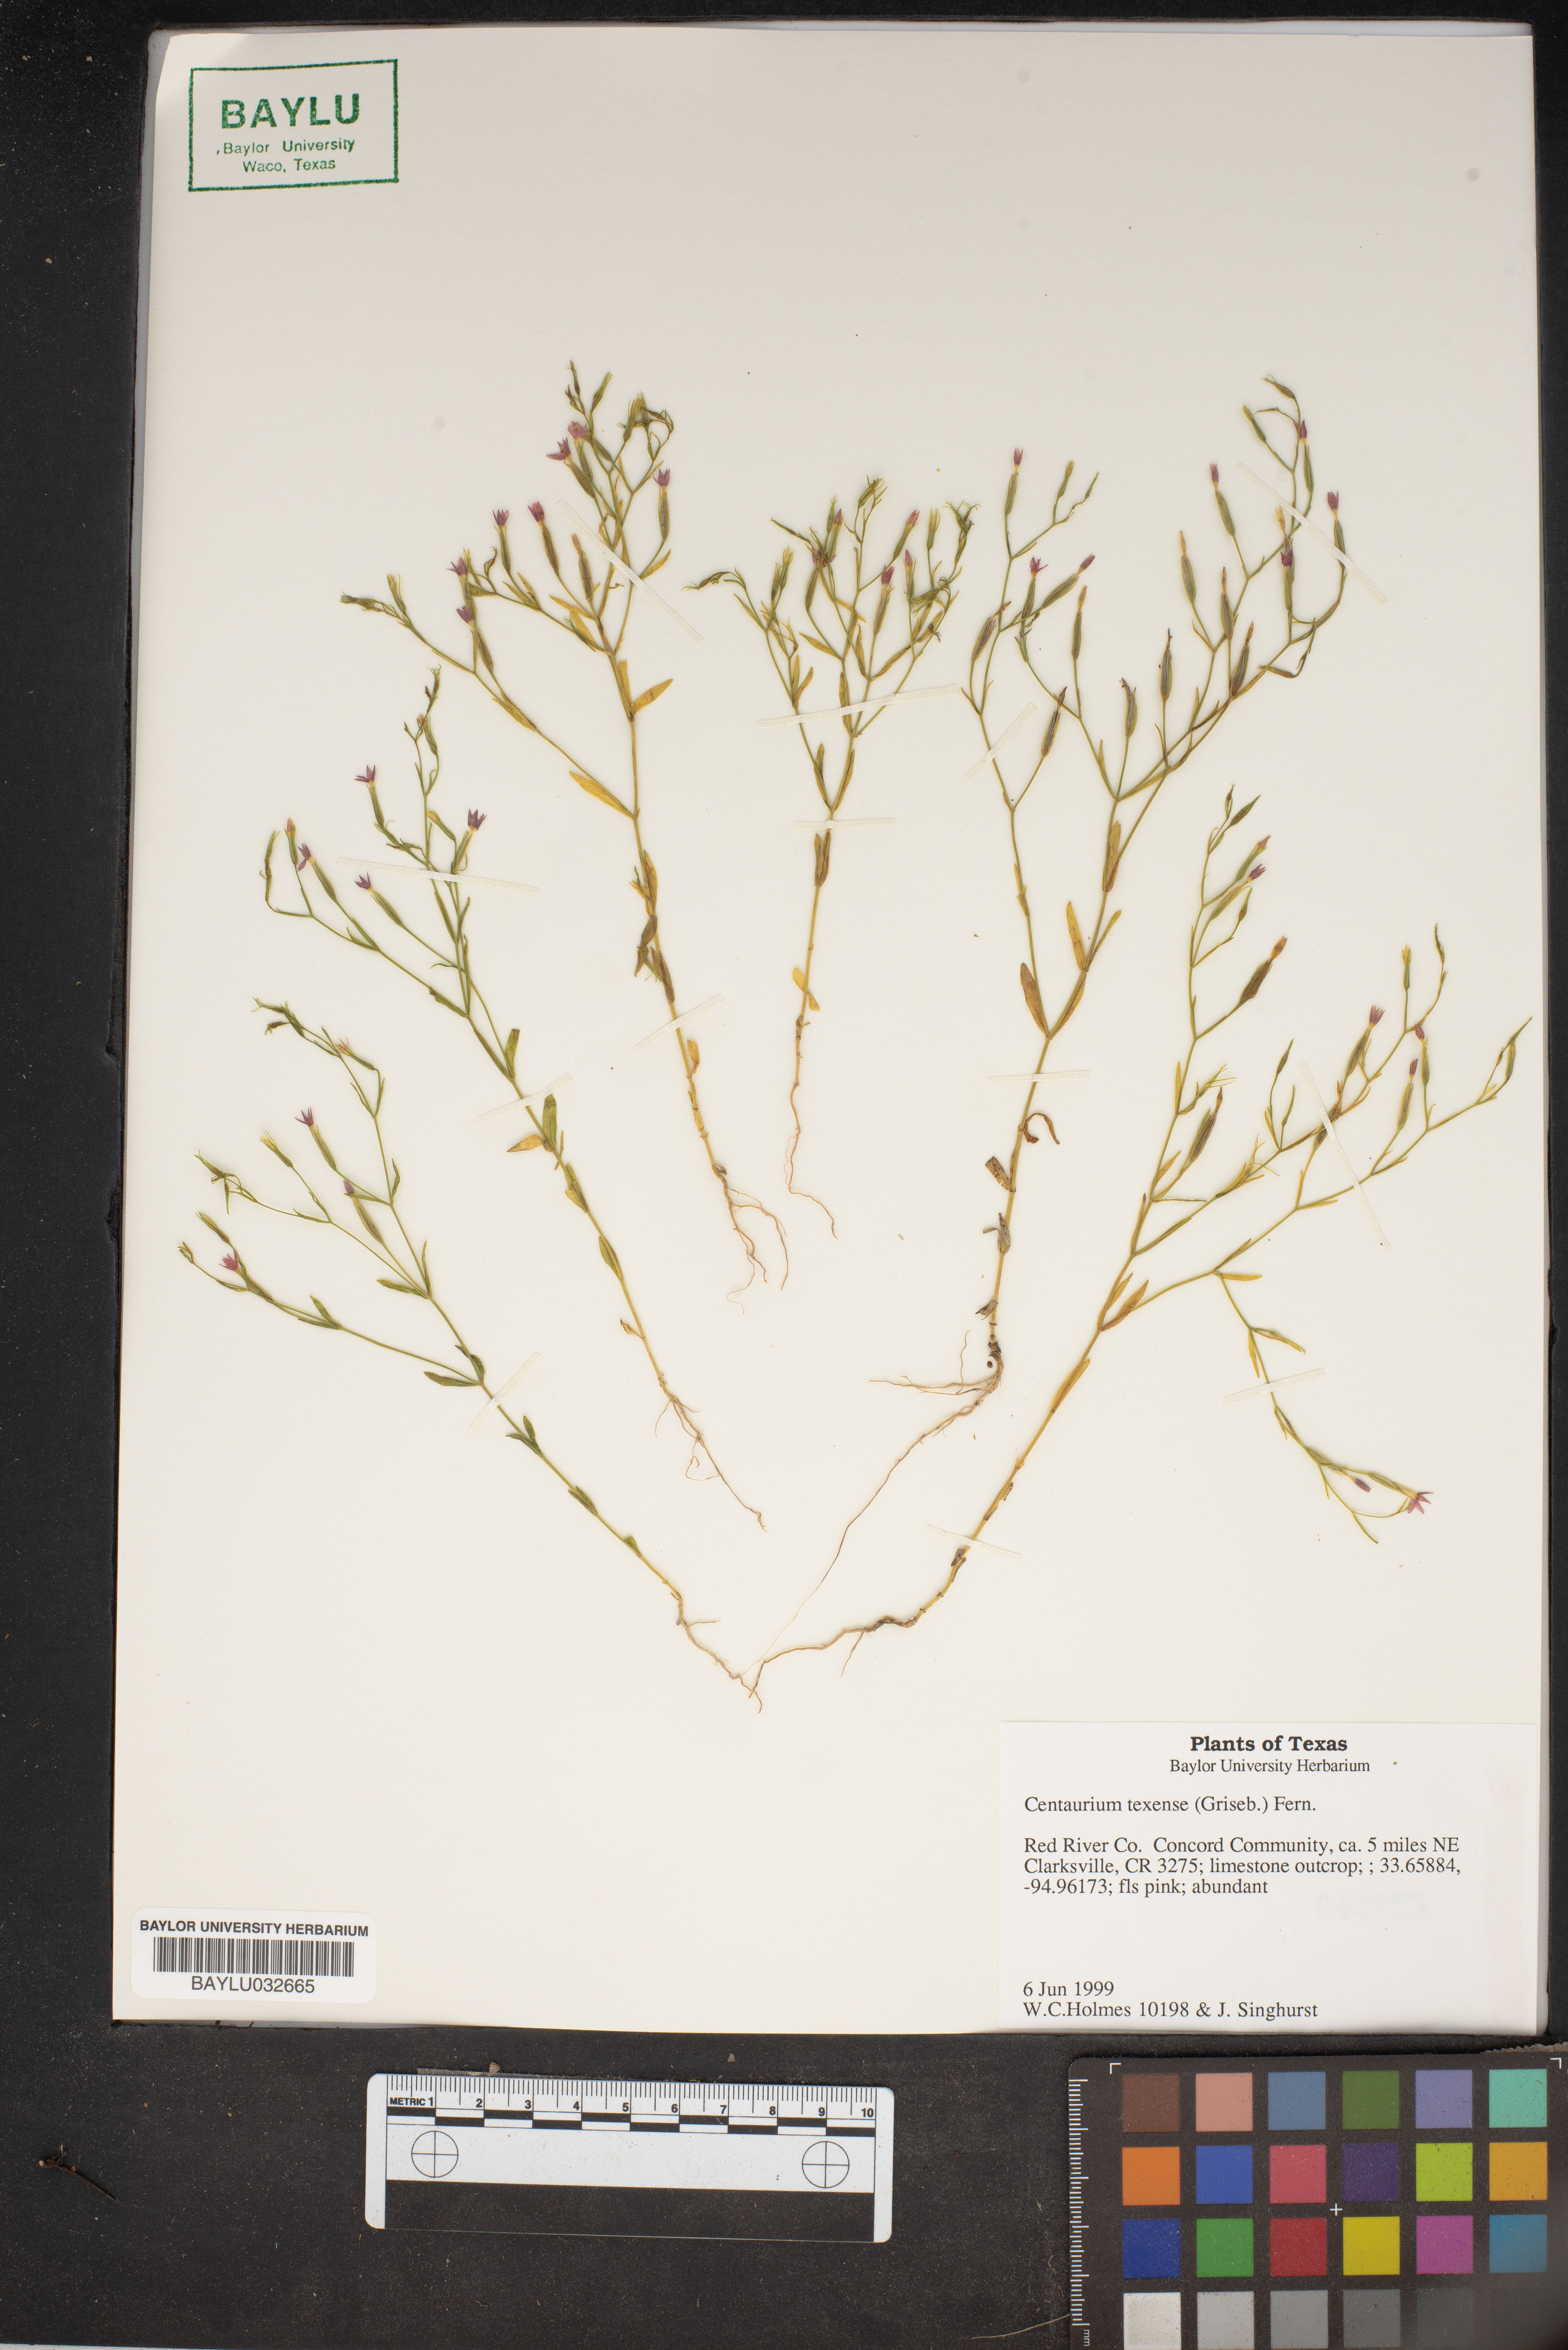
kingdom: Plantae
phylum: Tracheophyta
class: Magnoliopsida
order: Gentianales
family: Gentianaceae
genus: Zeltnera
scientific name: Zeltnera texensis
